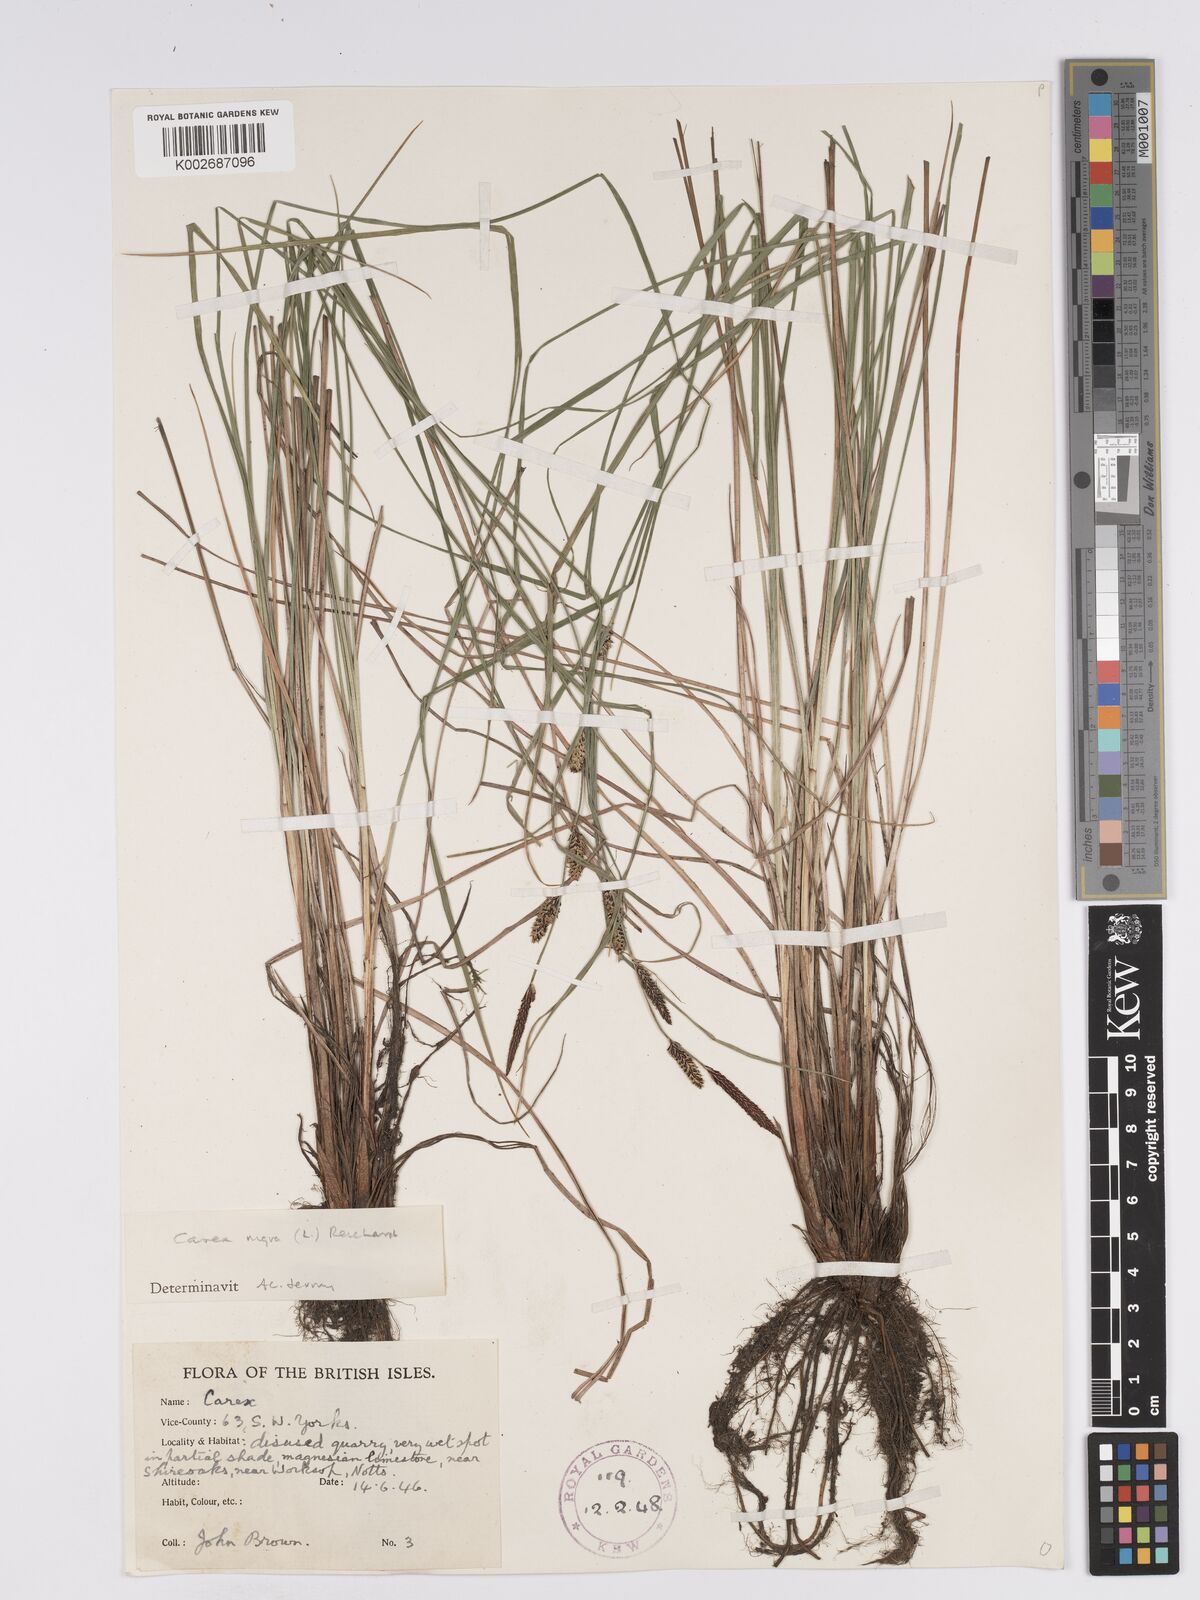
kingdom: Plantae
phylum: Tracheophyta
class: Liliopsida
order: Poales
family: Cyperaceae
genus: Carex
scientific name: Carex nigra
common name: Common sedge
